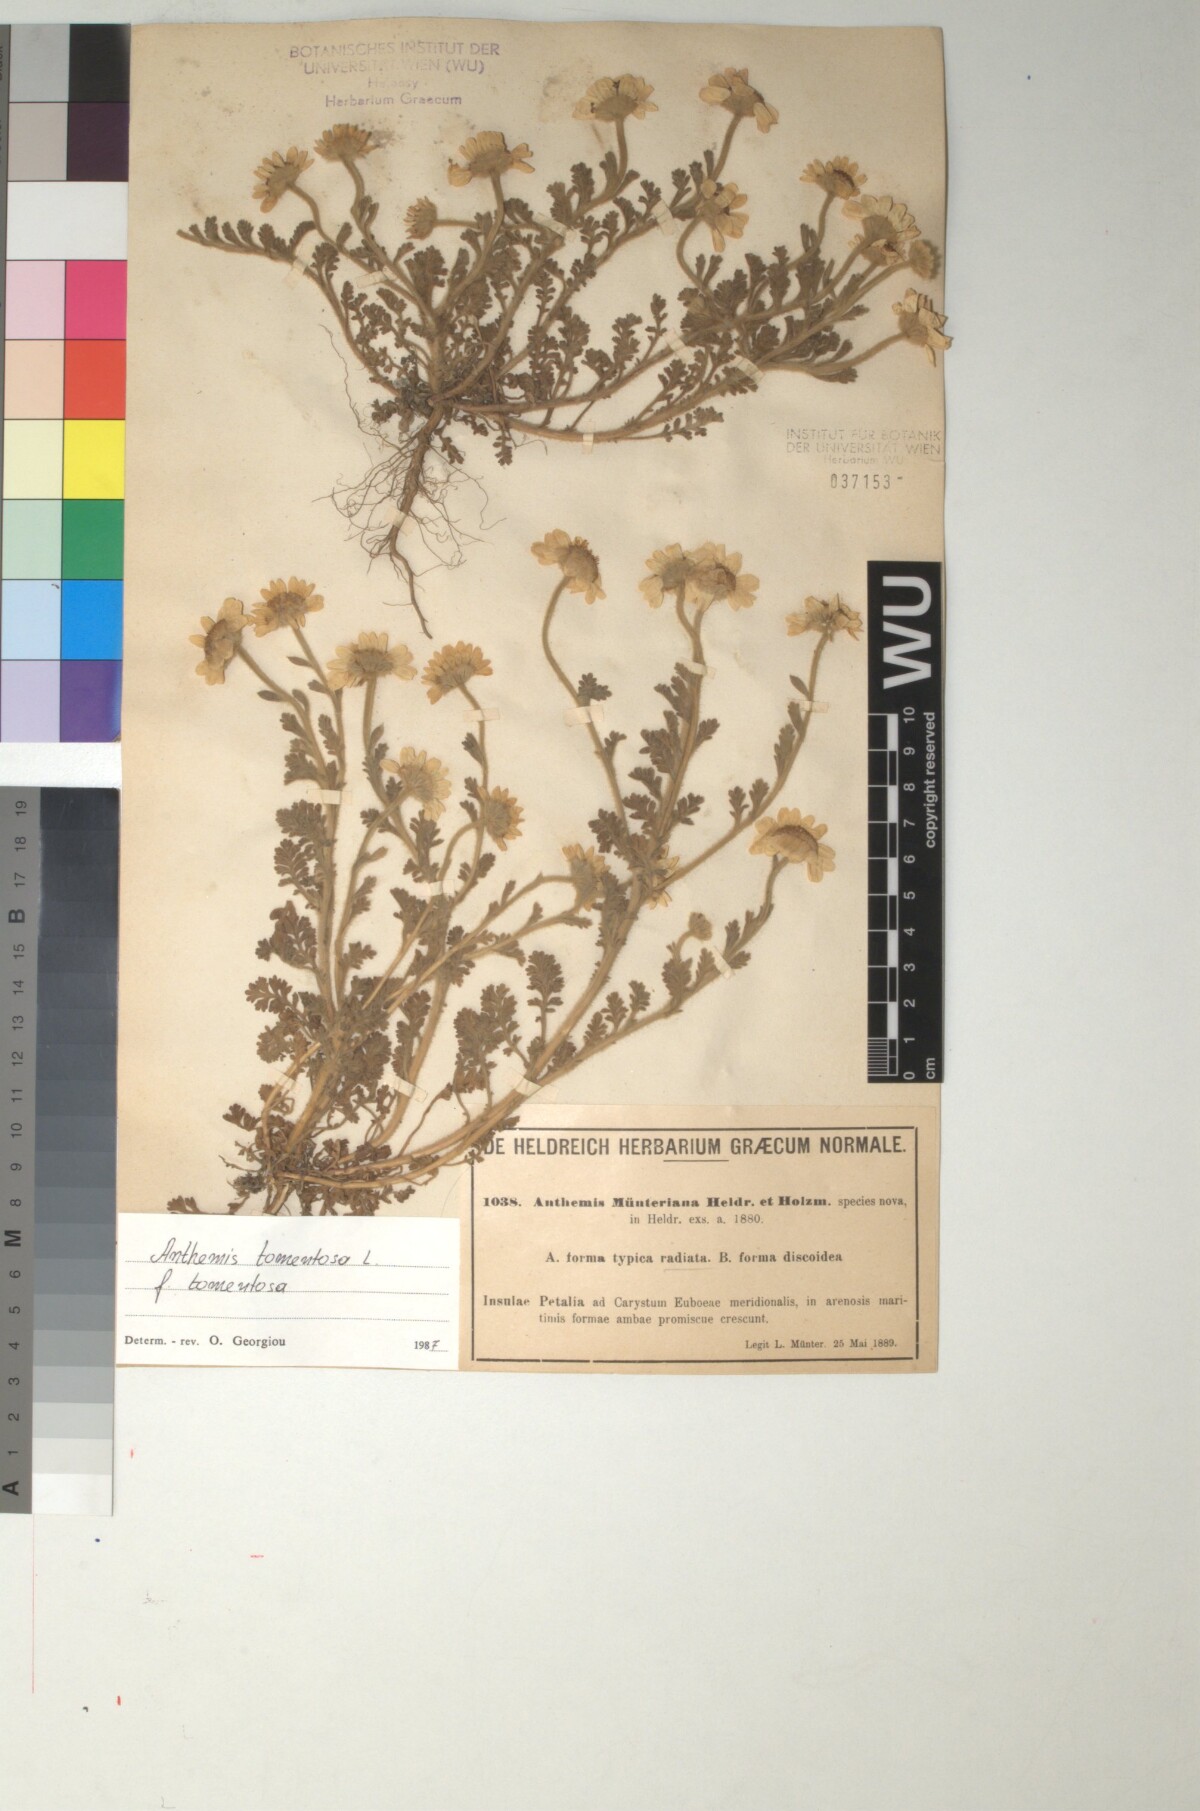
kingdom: Plantae
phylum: Tracheophyta
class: Magnoliopsida
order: Asterales
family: Asteraceae
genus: Anthemis
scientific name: Anthemis tomentosa
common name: Woolly chamomile
